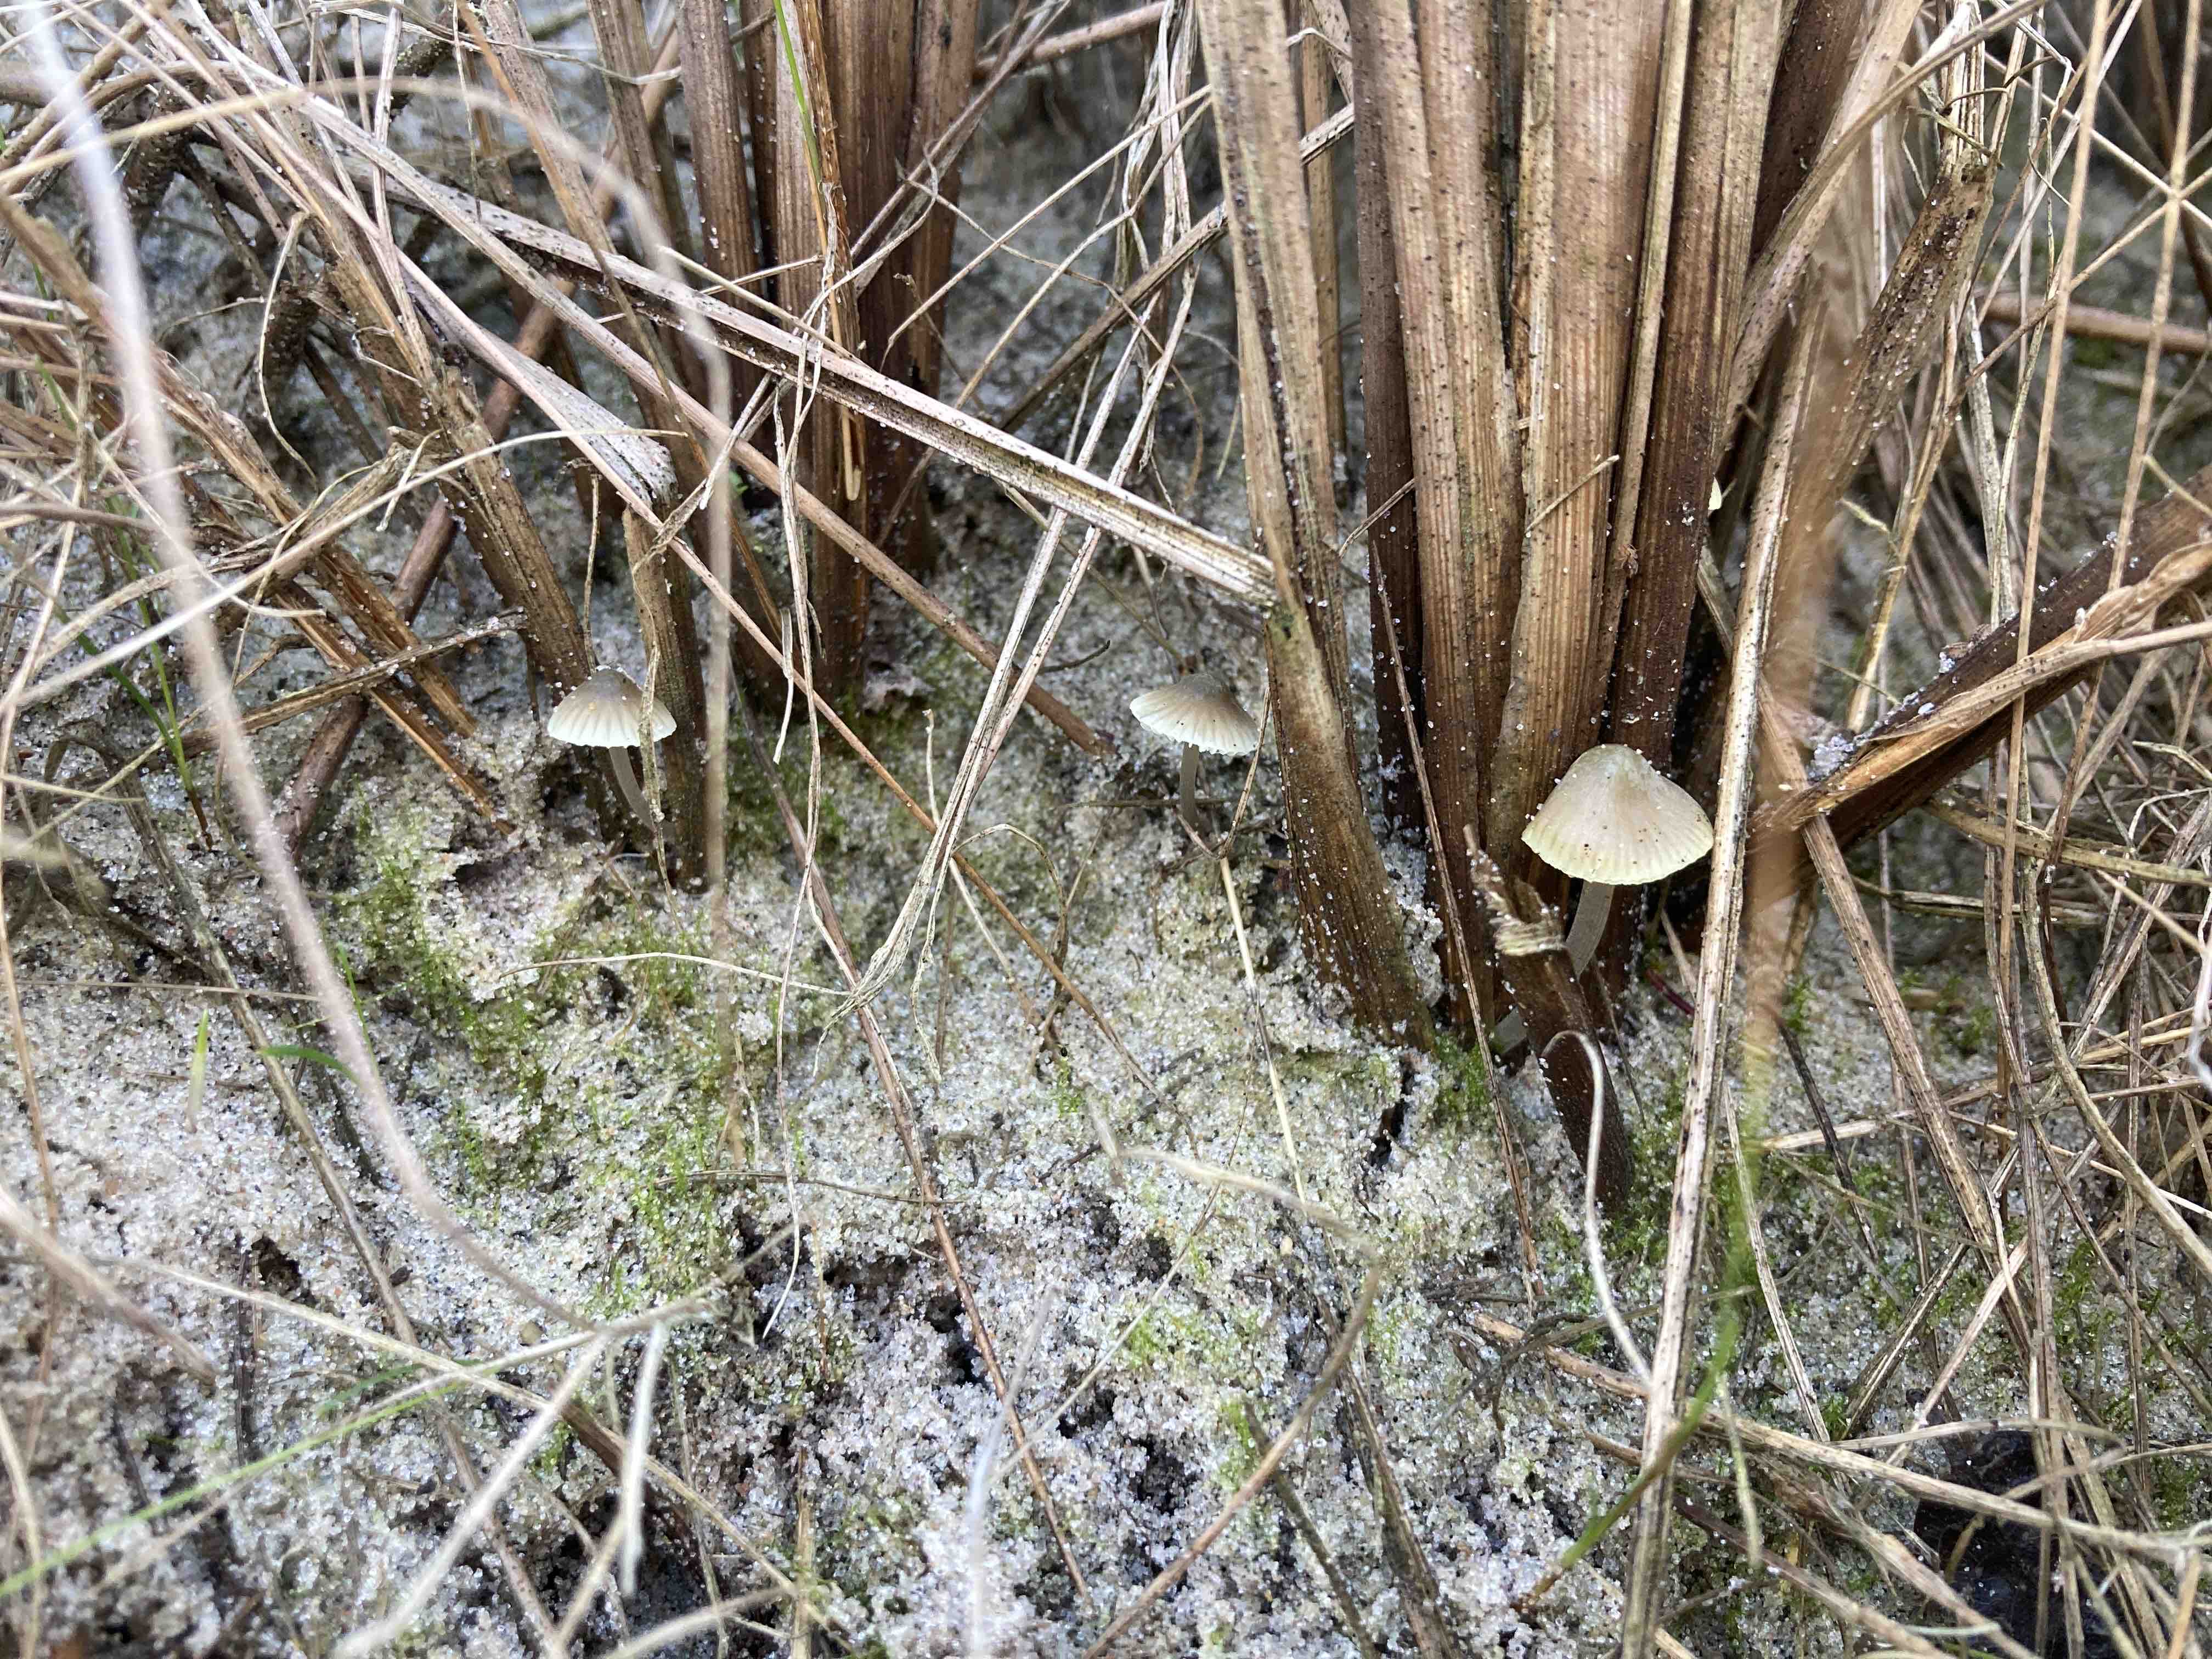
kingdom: Fungi
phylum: Basidiomycota
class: Agaricomycetes
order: Agaricales
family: Mycenaceae
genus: Mycena
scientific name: Mycena chlorantha
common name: klit-huesvamp
